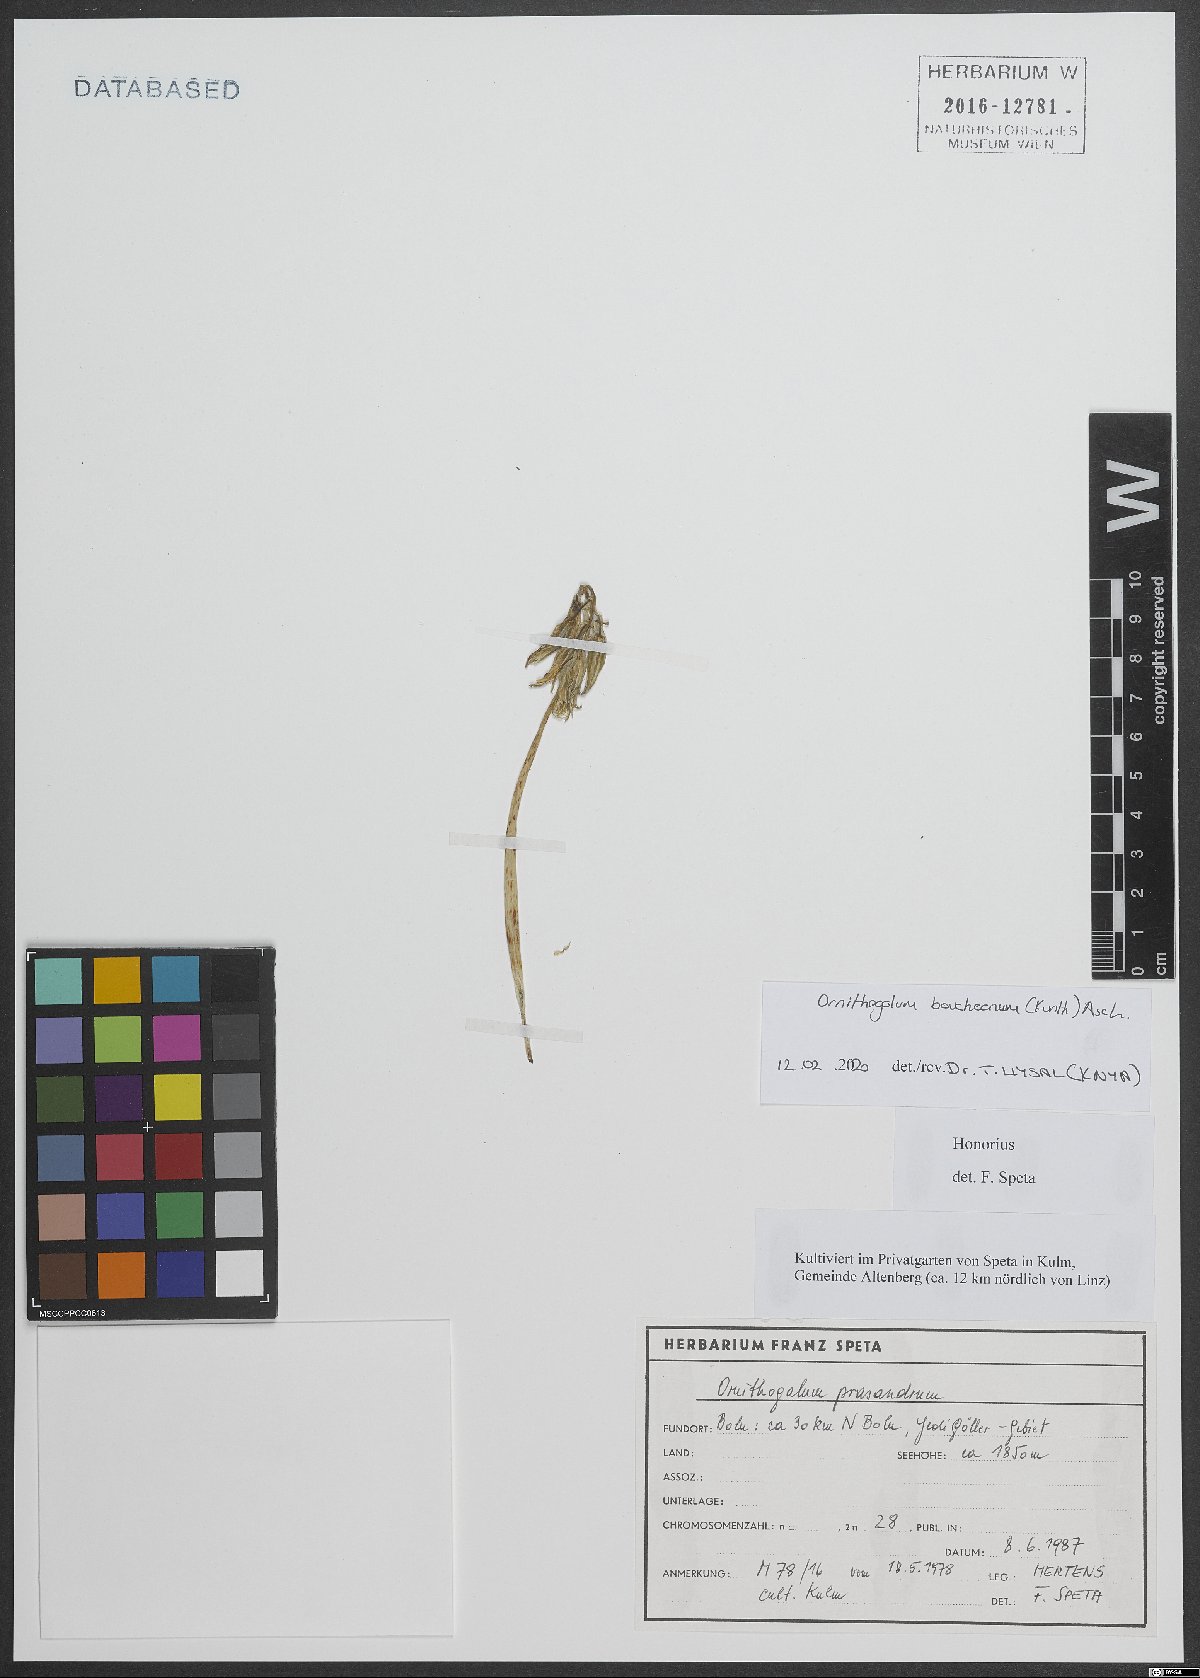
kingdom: Plantae
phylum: Tracheophyta
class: Liliopsida
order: Asparagales
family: Asparagaceae
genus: Ornithogalum
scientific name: Ornithogalum boucheanum
